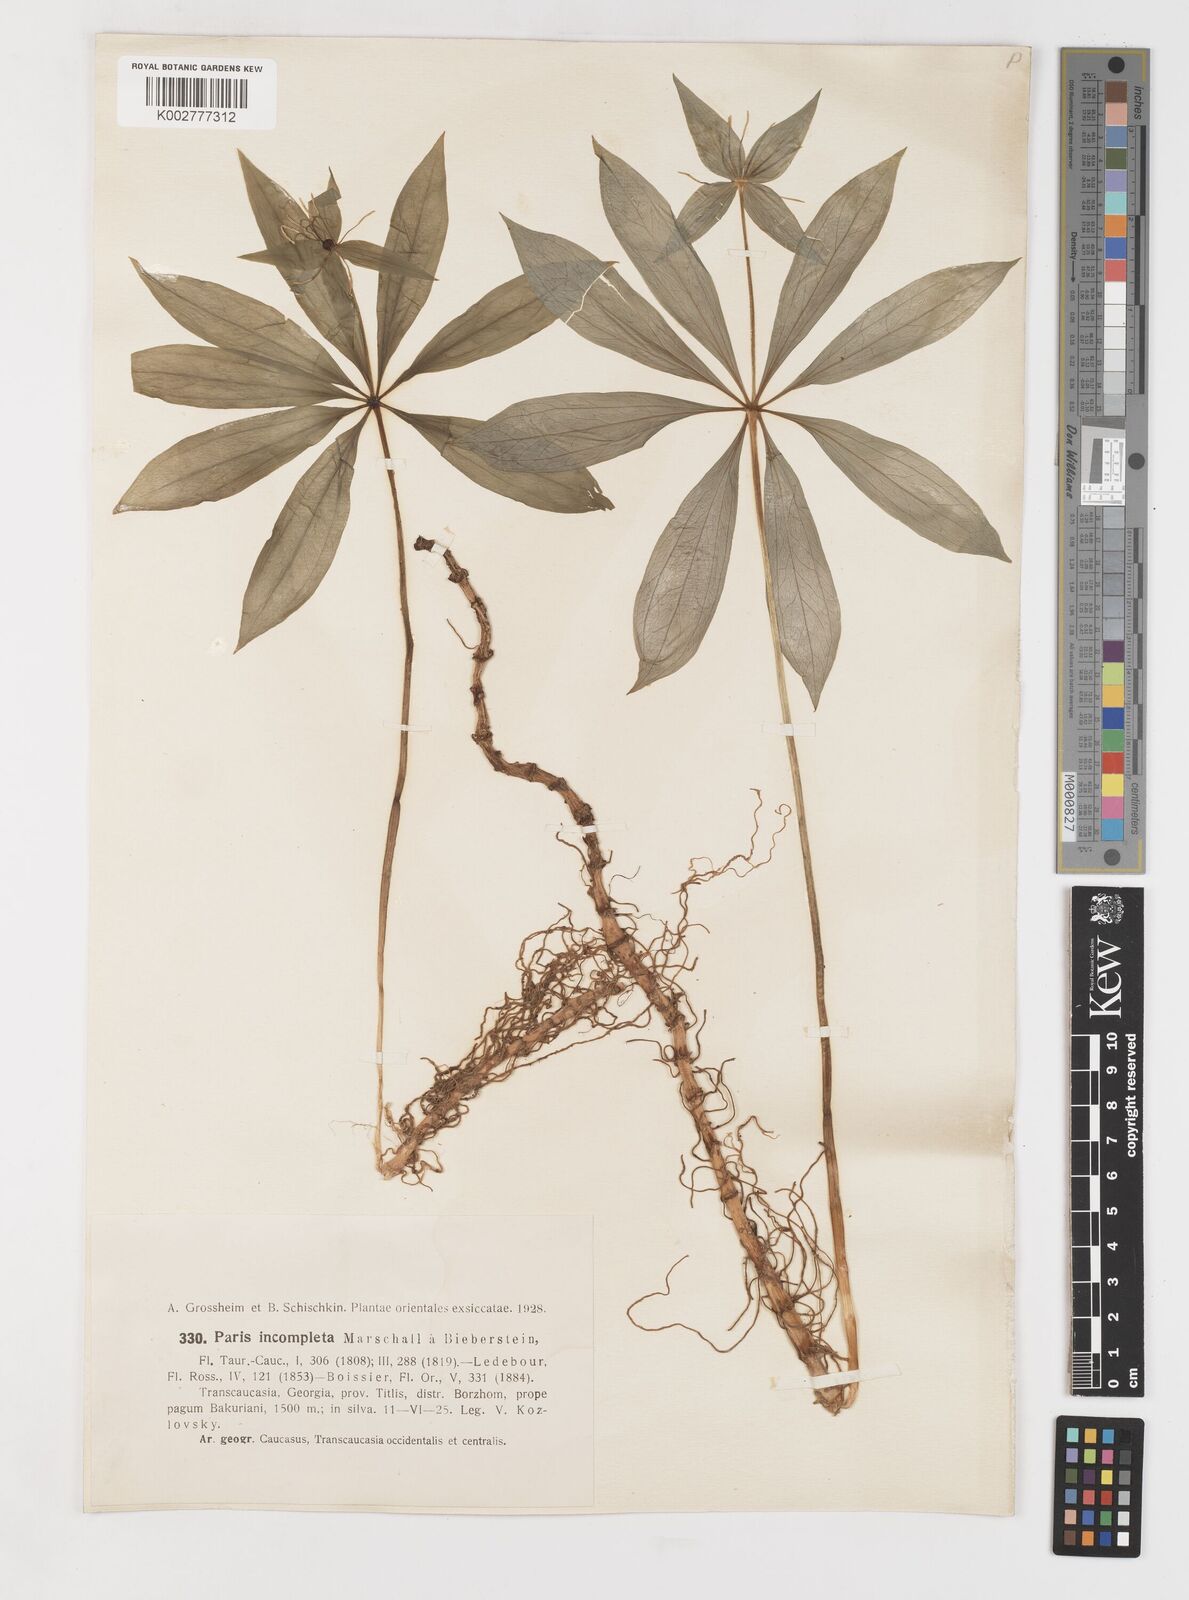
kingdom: Plantae
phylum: Tracheophyta
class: Liliopsida
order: Liliales
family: Melanthiaceae
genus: Paris
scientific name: Paris incompleta
